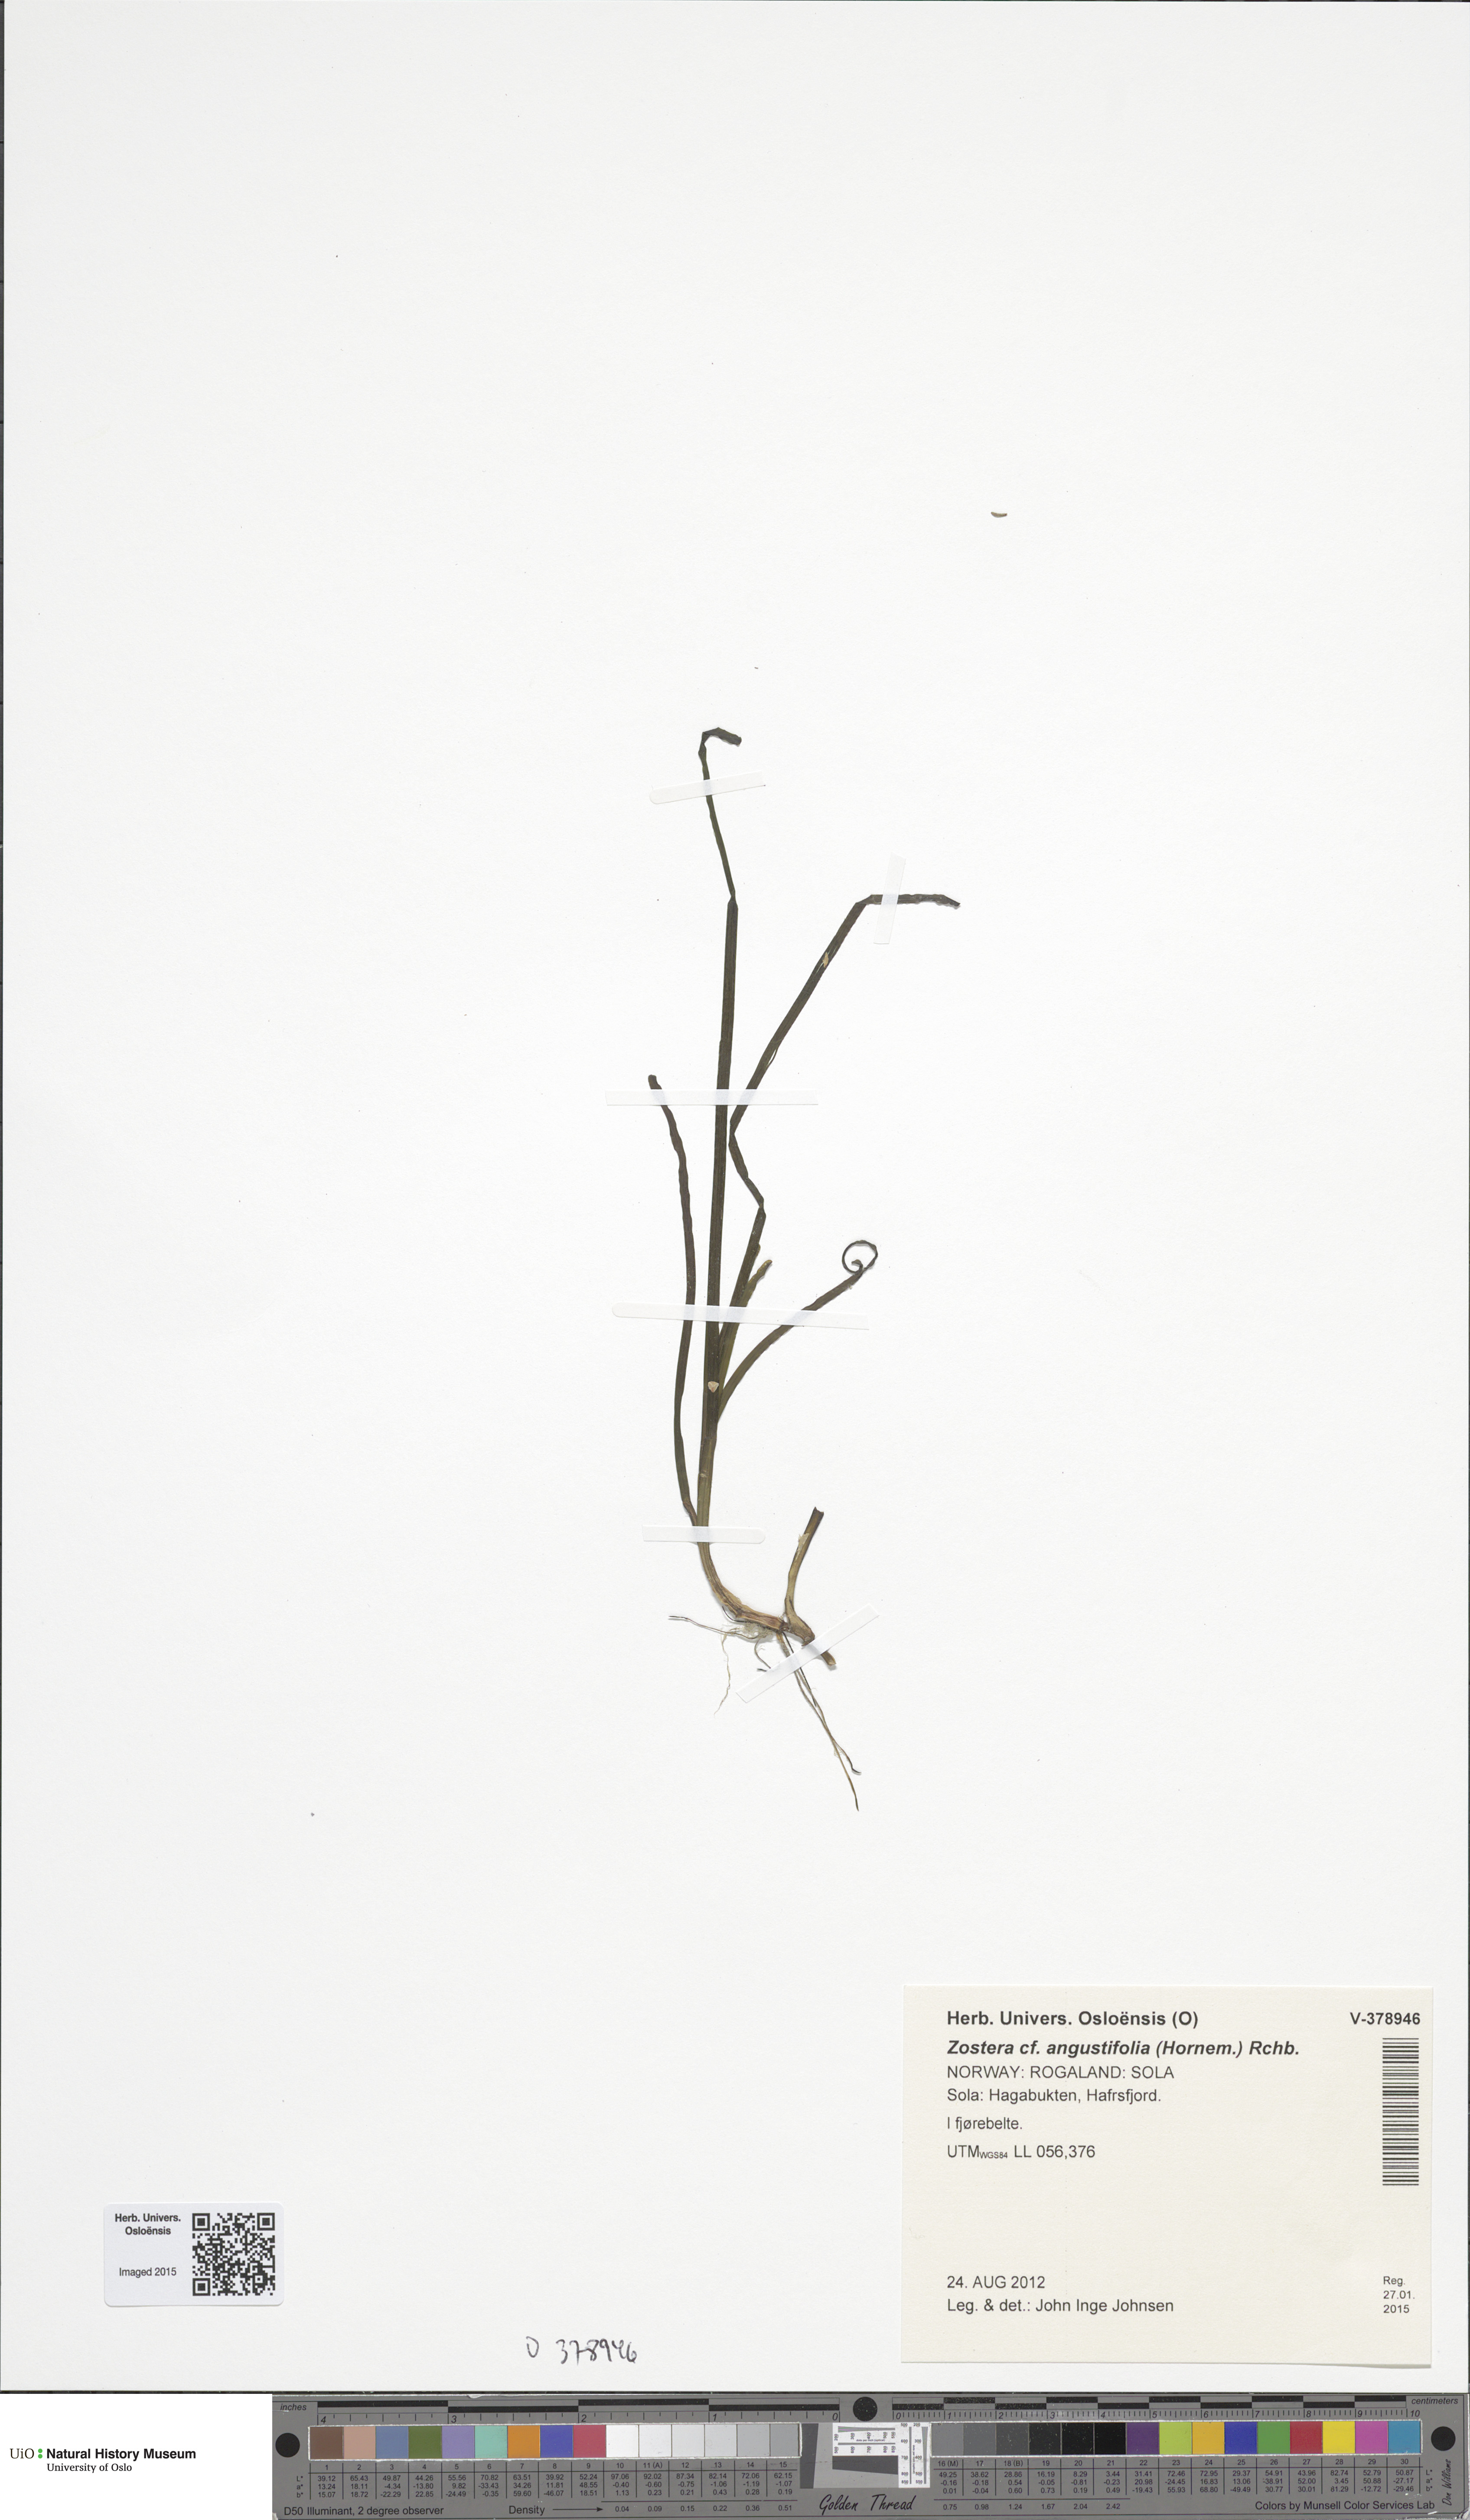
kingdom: Plantae
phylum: Tracheophyta
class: Liliopsida
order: Alismatales
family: Zosteraceae
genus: Zostera
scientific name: Zostera angustifolia
